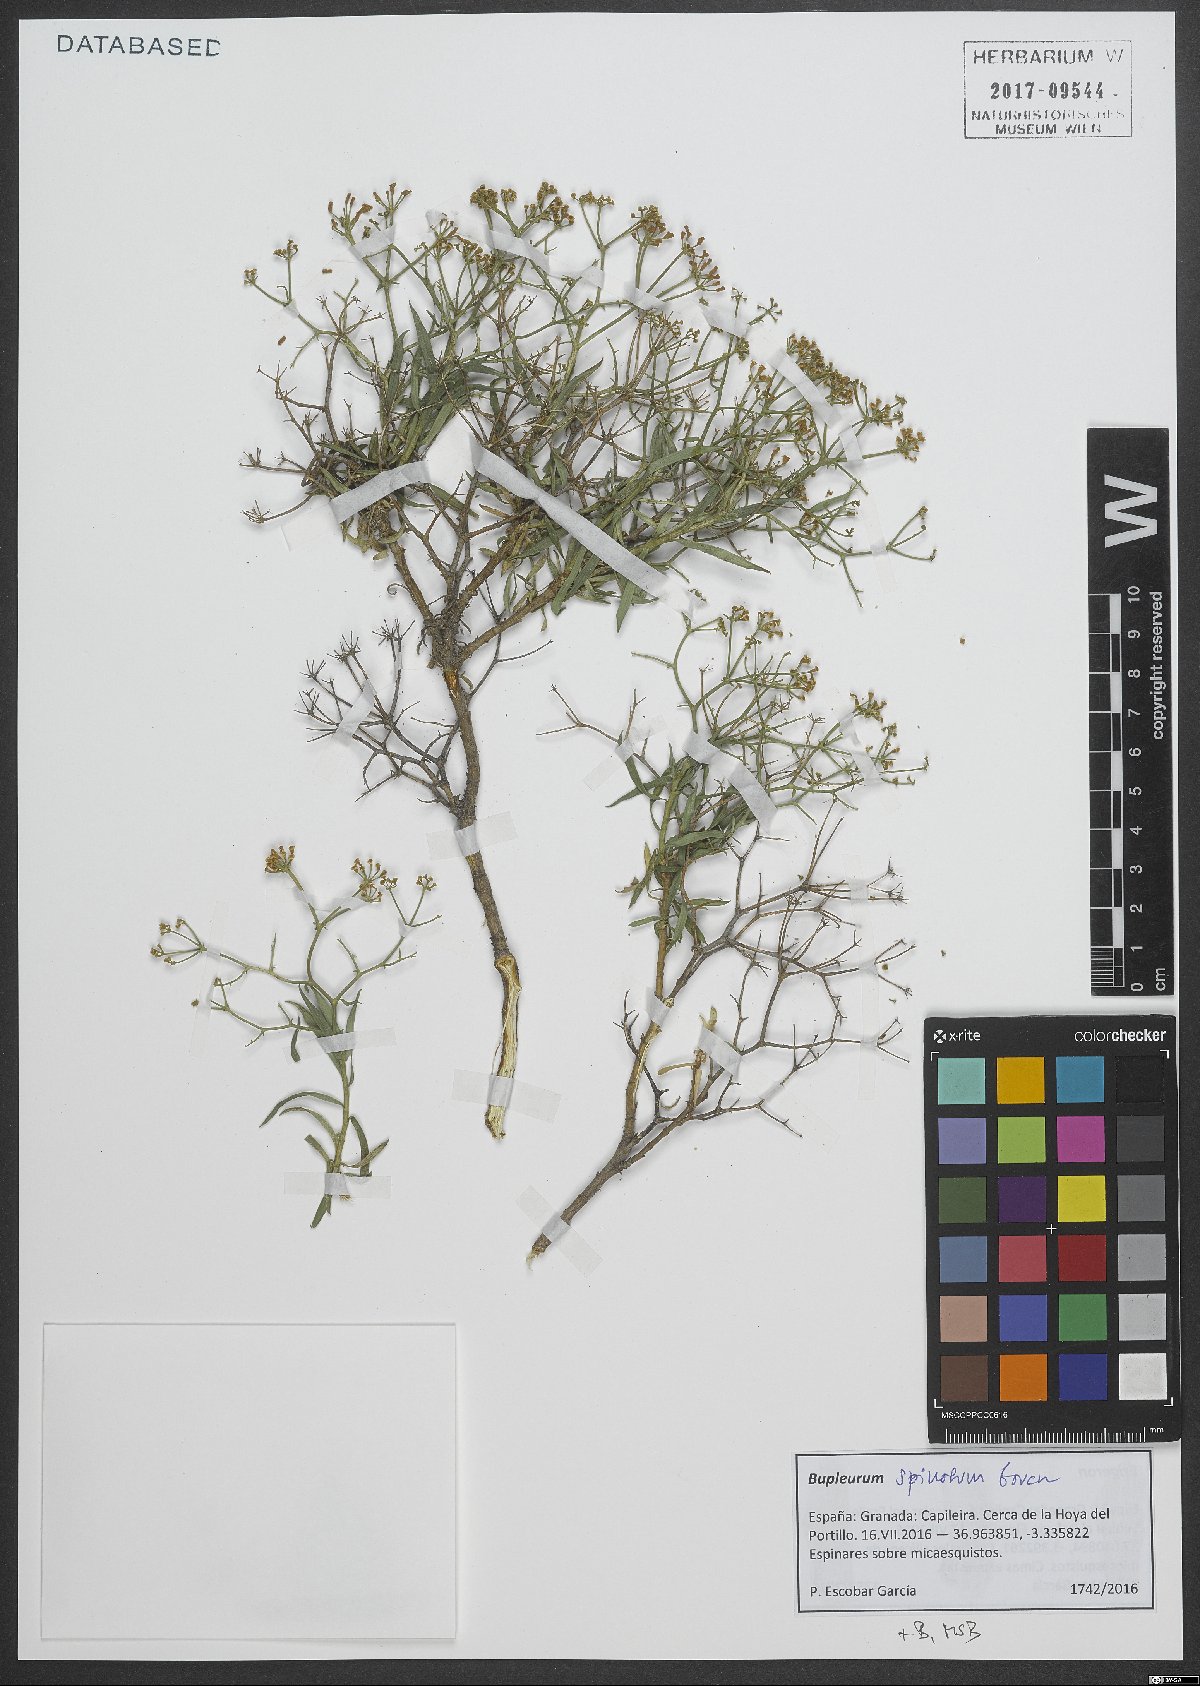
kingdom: Plantae
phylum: Tracheophyta
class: Magnoliopsida
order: Apiales
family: Apiaceae
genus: Bupleurum
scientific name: Bupleurum fruticescens
